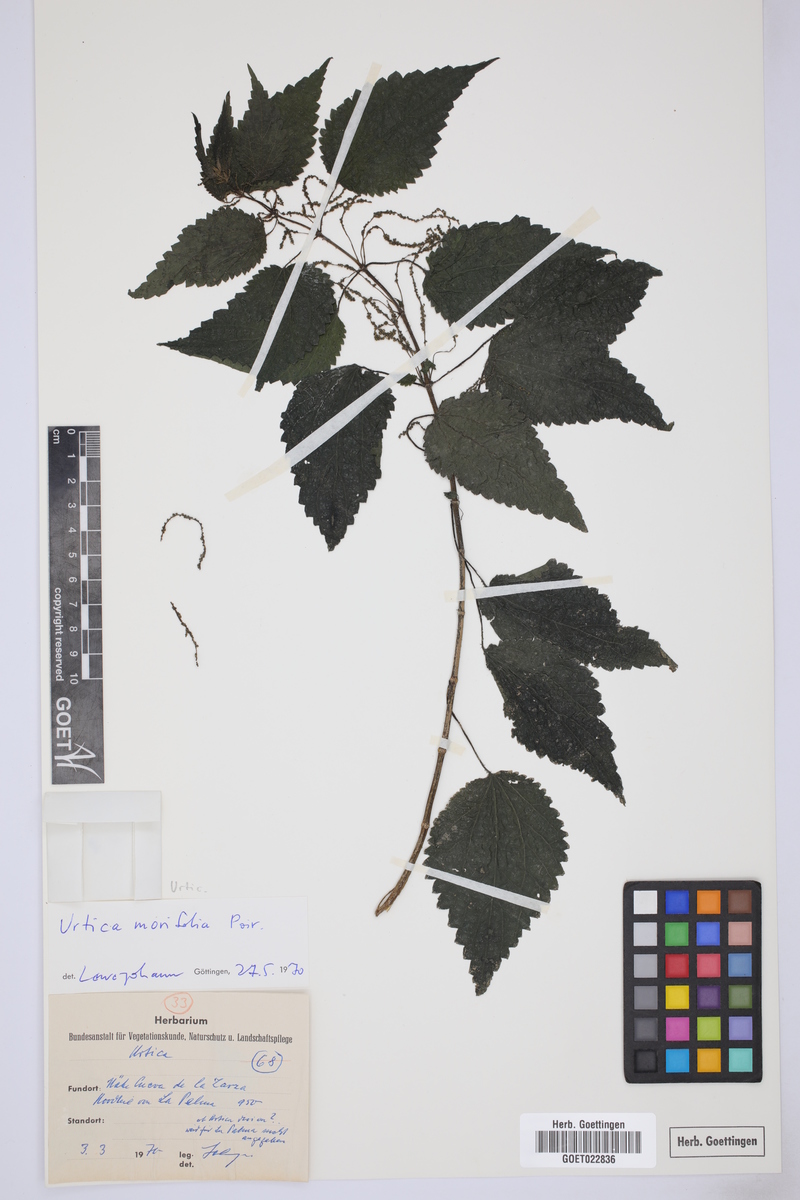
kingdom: Plantae
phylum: Tracheophyta
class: Magnoliopsida
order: Rosales
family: Urticaceae
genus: Urtica
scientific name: Urtica morifolia
